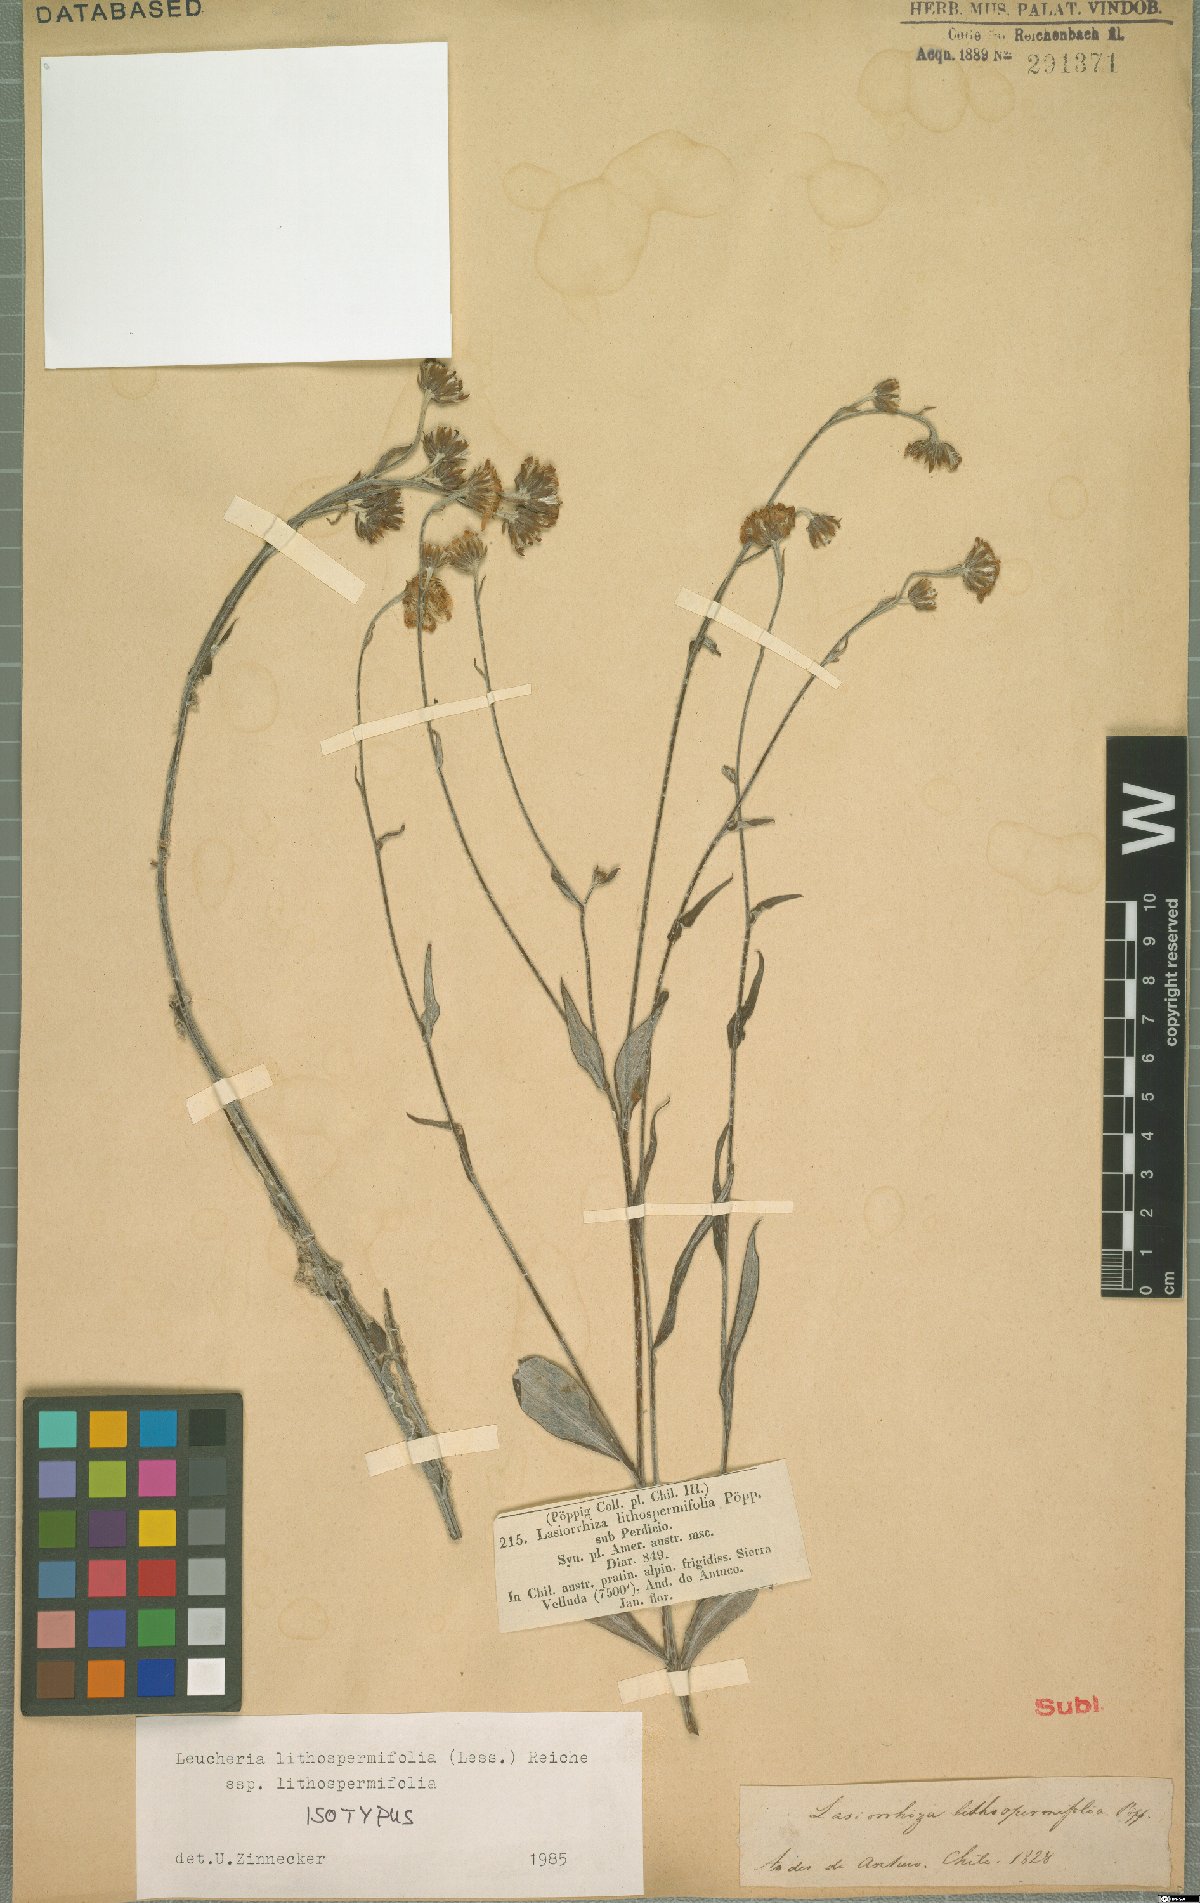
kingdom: Plantae
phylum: Tracheophyta
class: Magnoliopsida
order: Asterales
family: Asteraceae
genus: Leucheria
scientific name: Leucheria lithospermifolia
